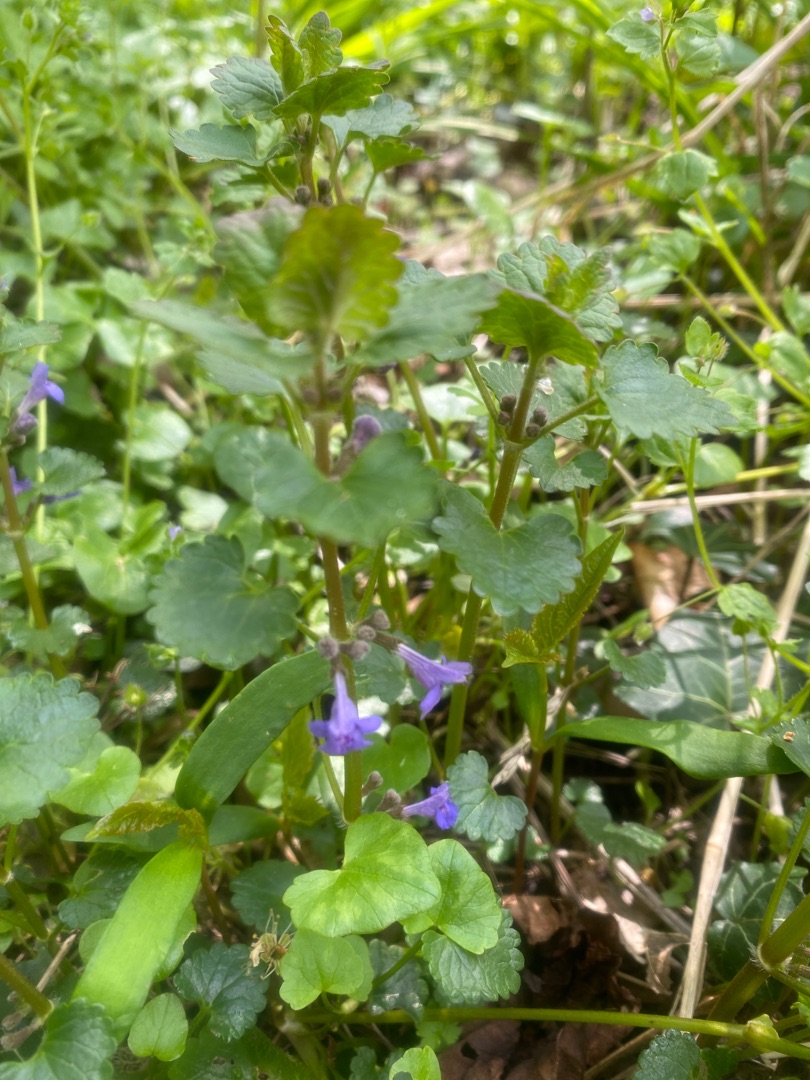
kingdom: Plantae
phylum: Tracheophyta
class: Magnoliopsida
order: Lamiales
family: Lamiaceae
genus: Glechoma
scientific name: Glechoma hederacea
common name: Korsknap
